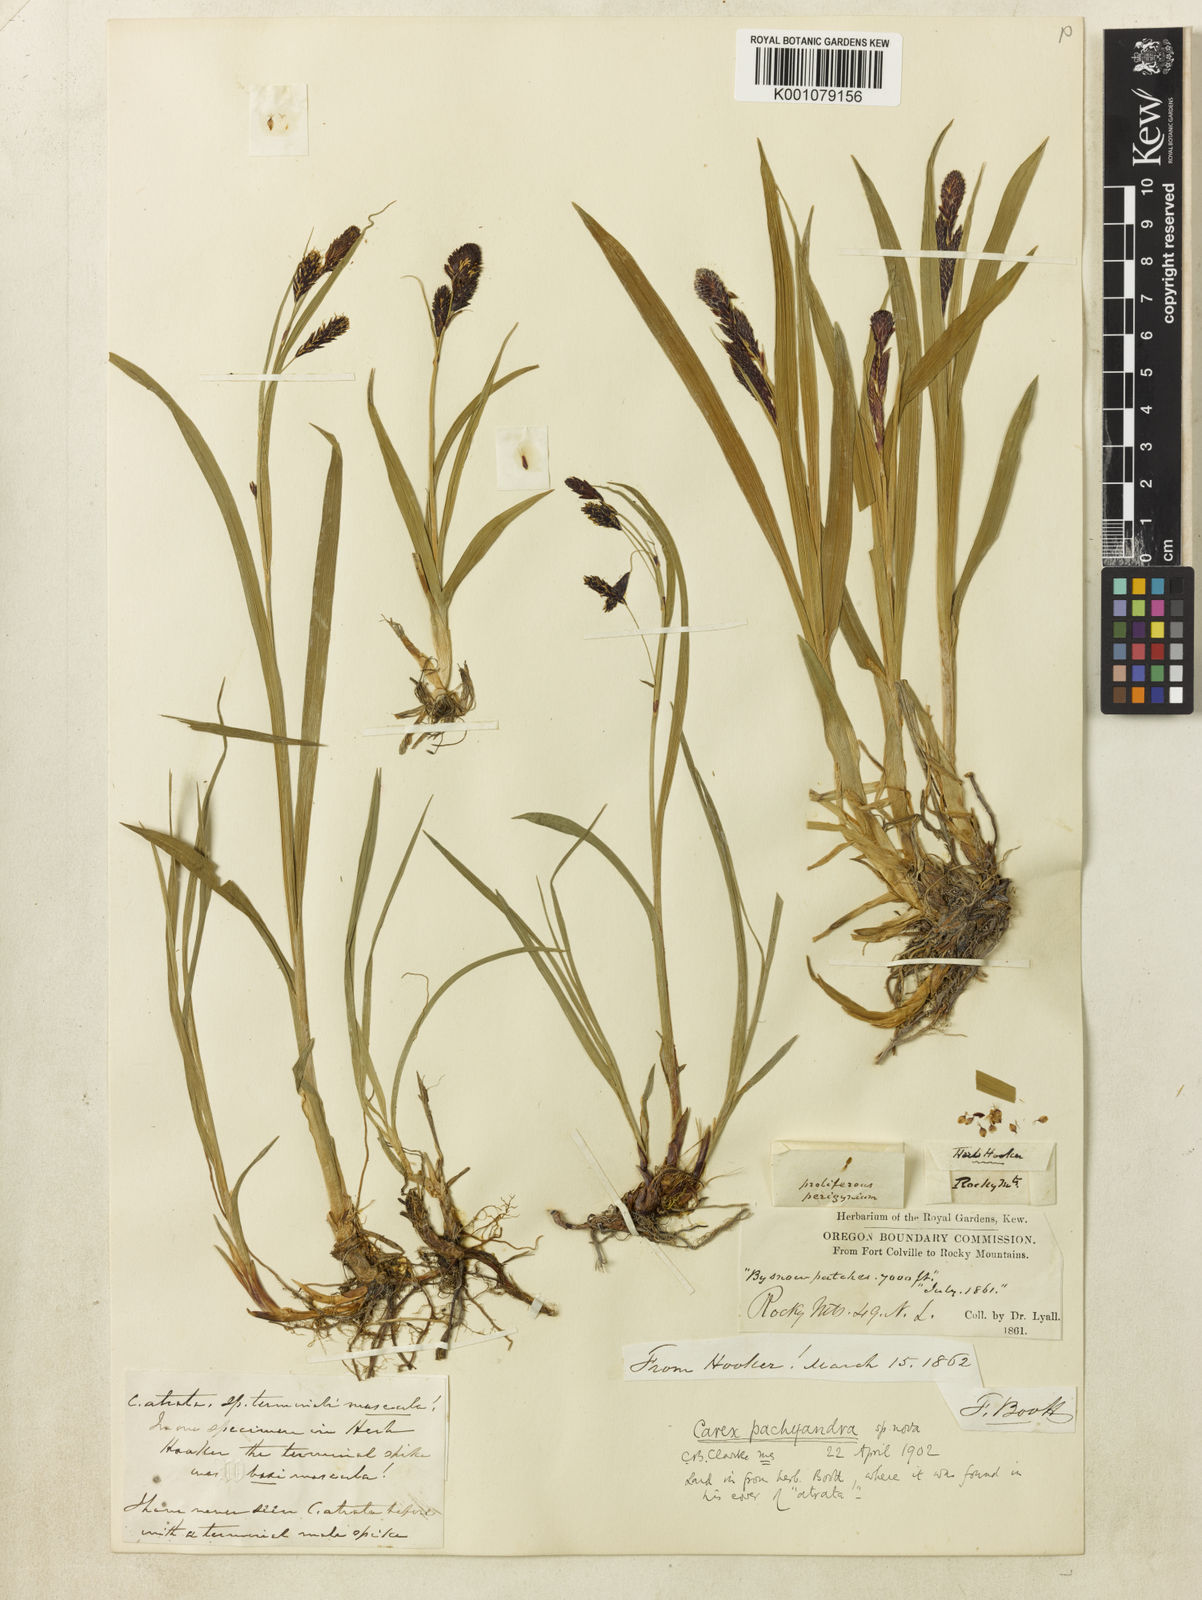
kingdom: Plantae
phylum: Tracheophyta
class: Liliopsida
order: Poales
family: Cyperaceae
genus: Carex
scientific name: Carex pachyandra
